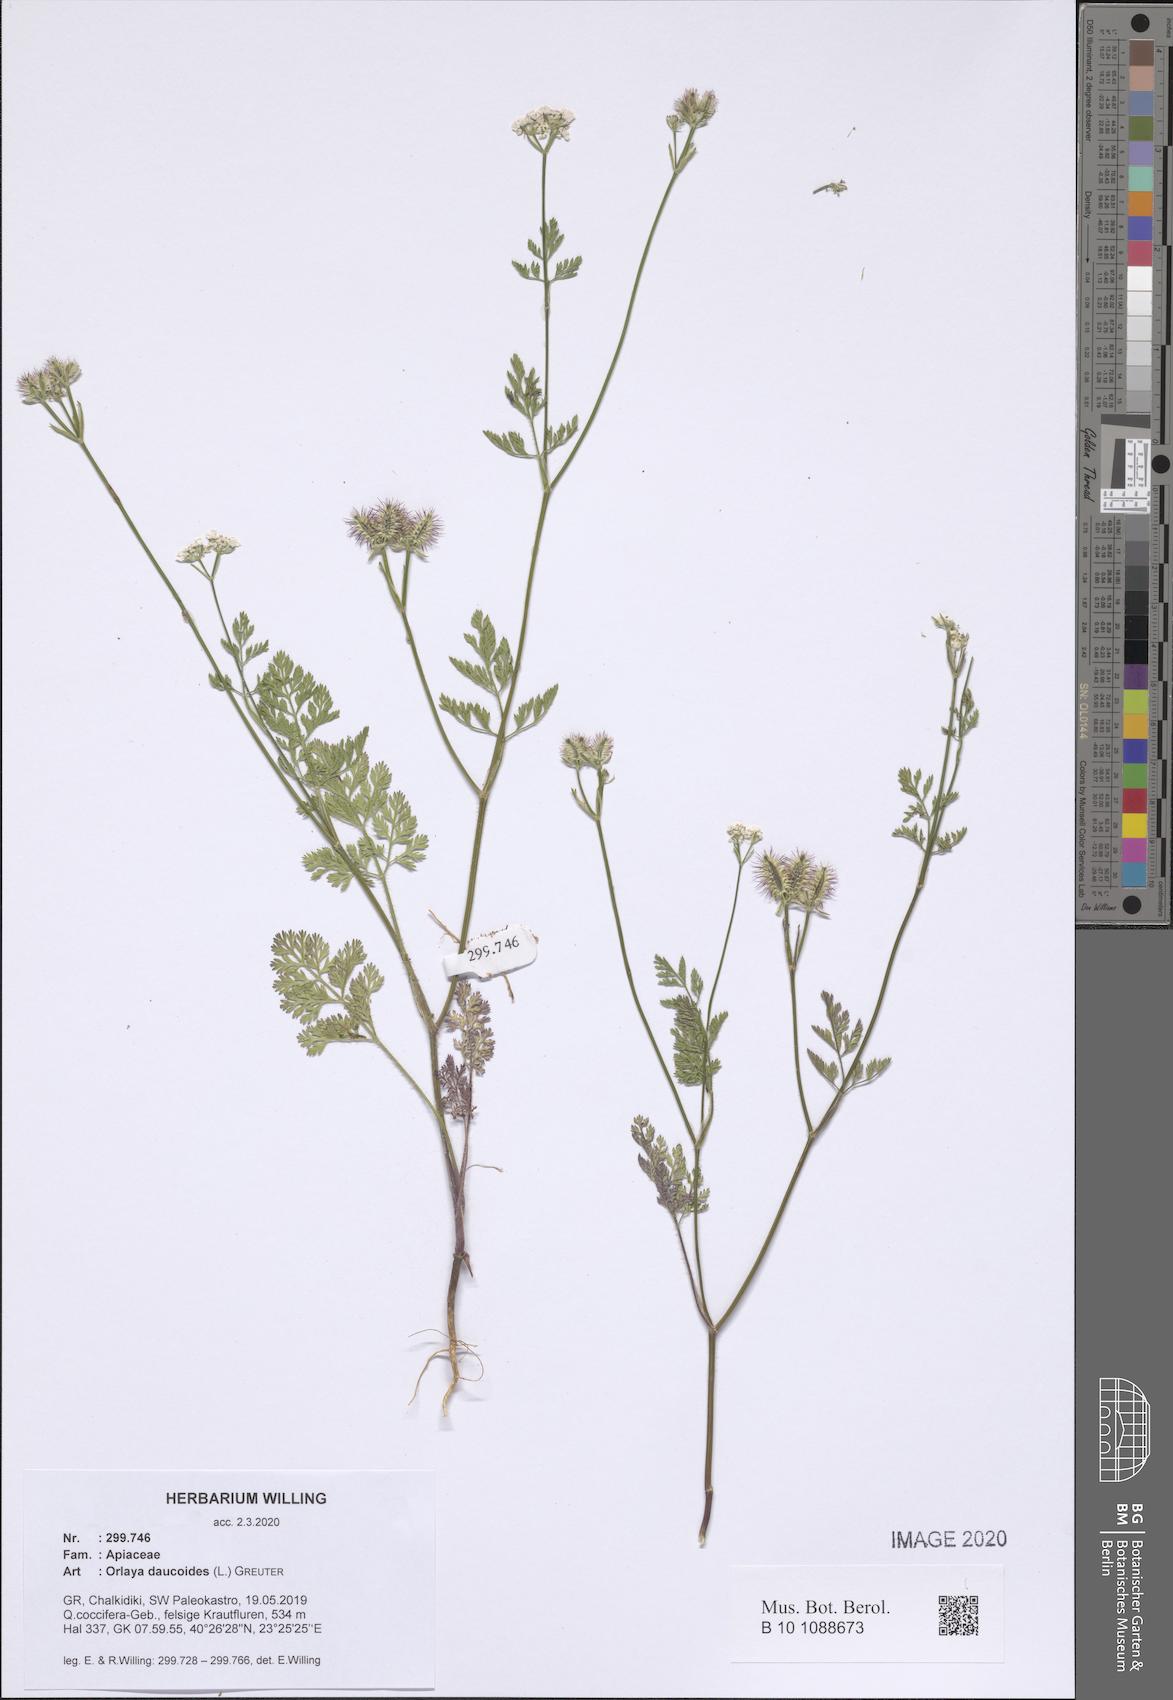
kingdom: Plantae
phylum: Tracheophyta
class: Magnoliopsida
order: Apiales
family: Apiaceae
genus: Orlaya
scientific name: Orlaya daucoides
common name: Flat-fruit orlaya
